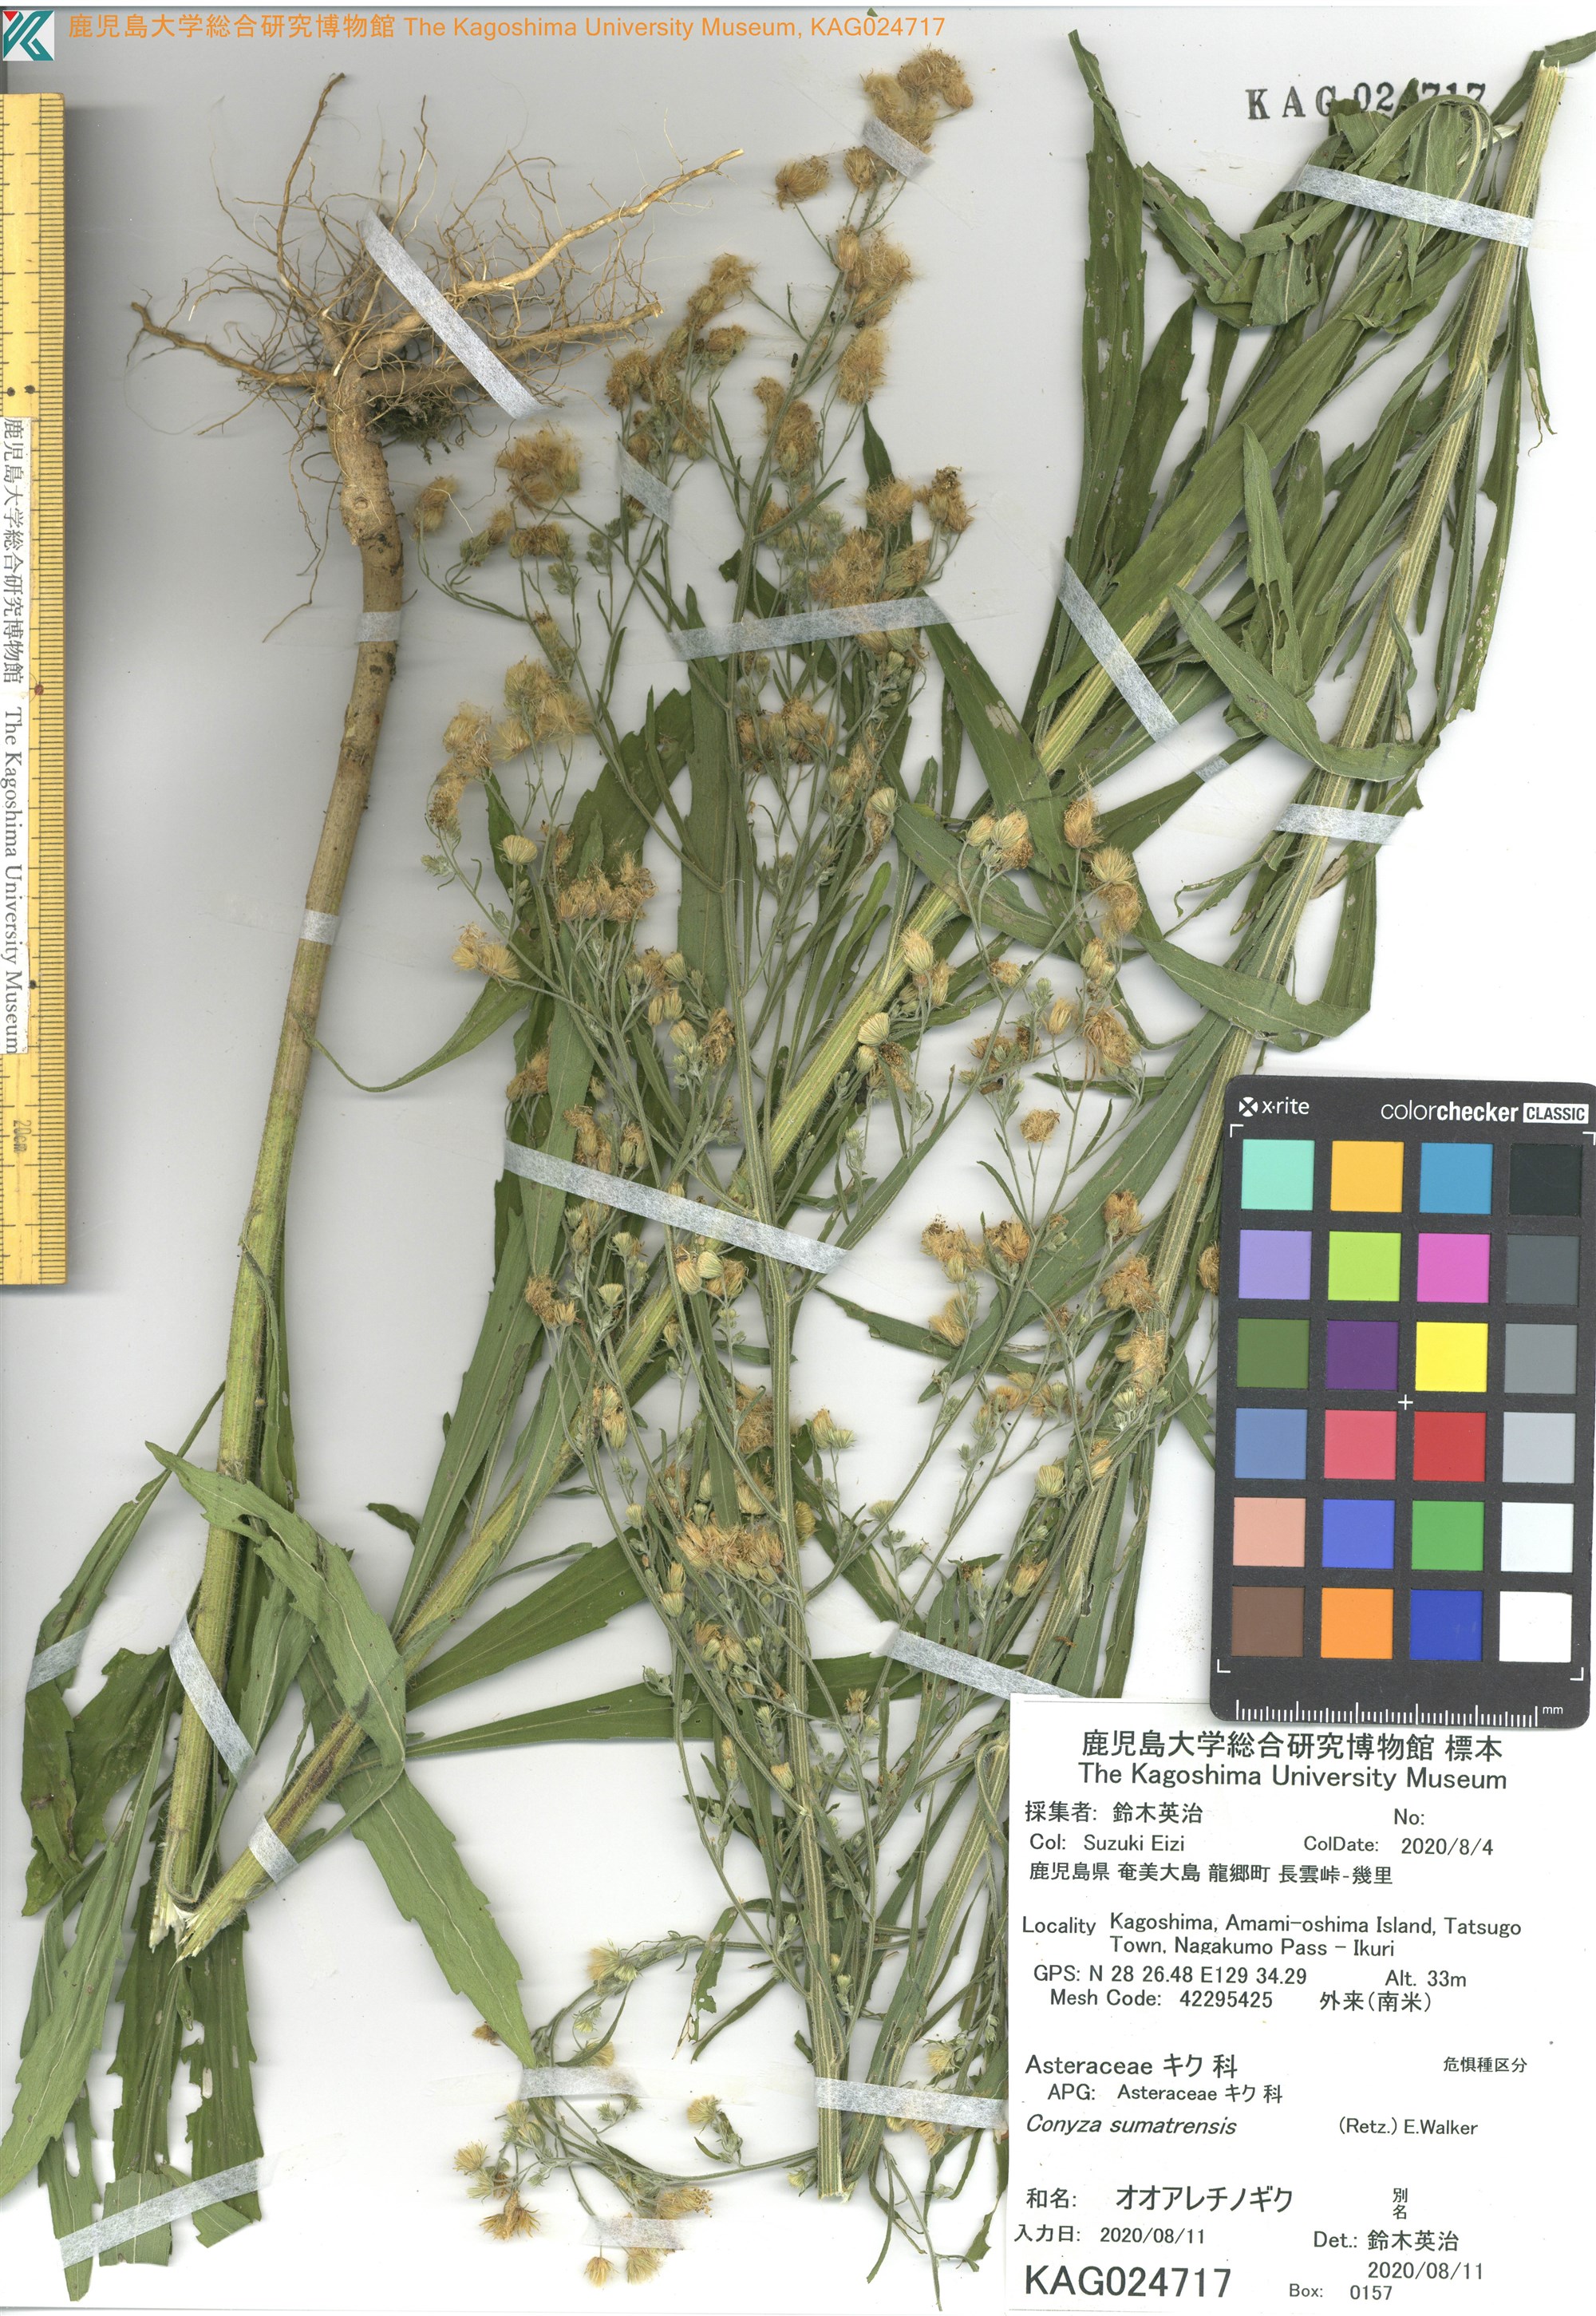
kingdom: Plantae
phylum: Tracheophyta
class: Magnoliopsida
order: Asterales
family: Asteraceae
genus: Conyza
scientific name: Conyza sumatrensis
